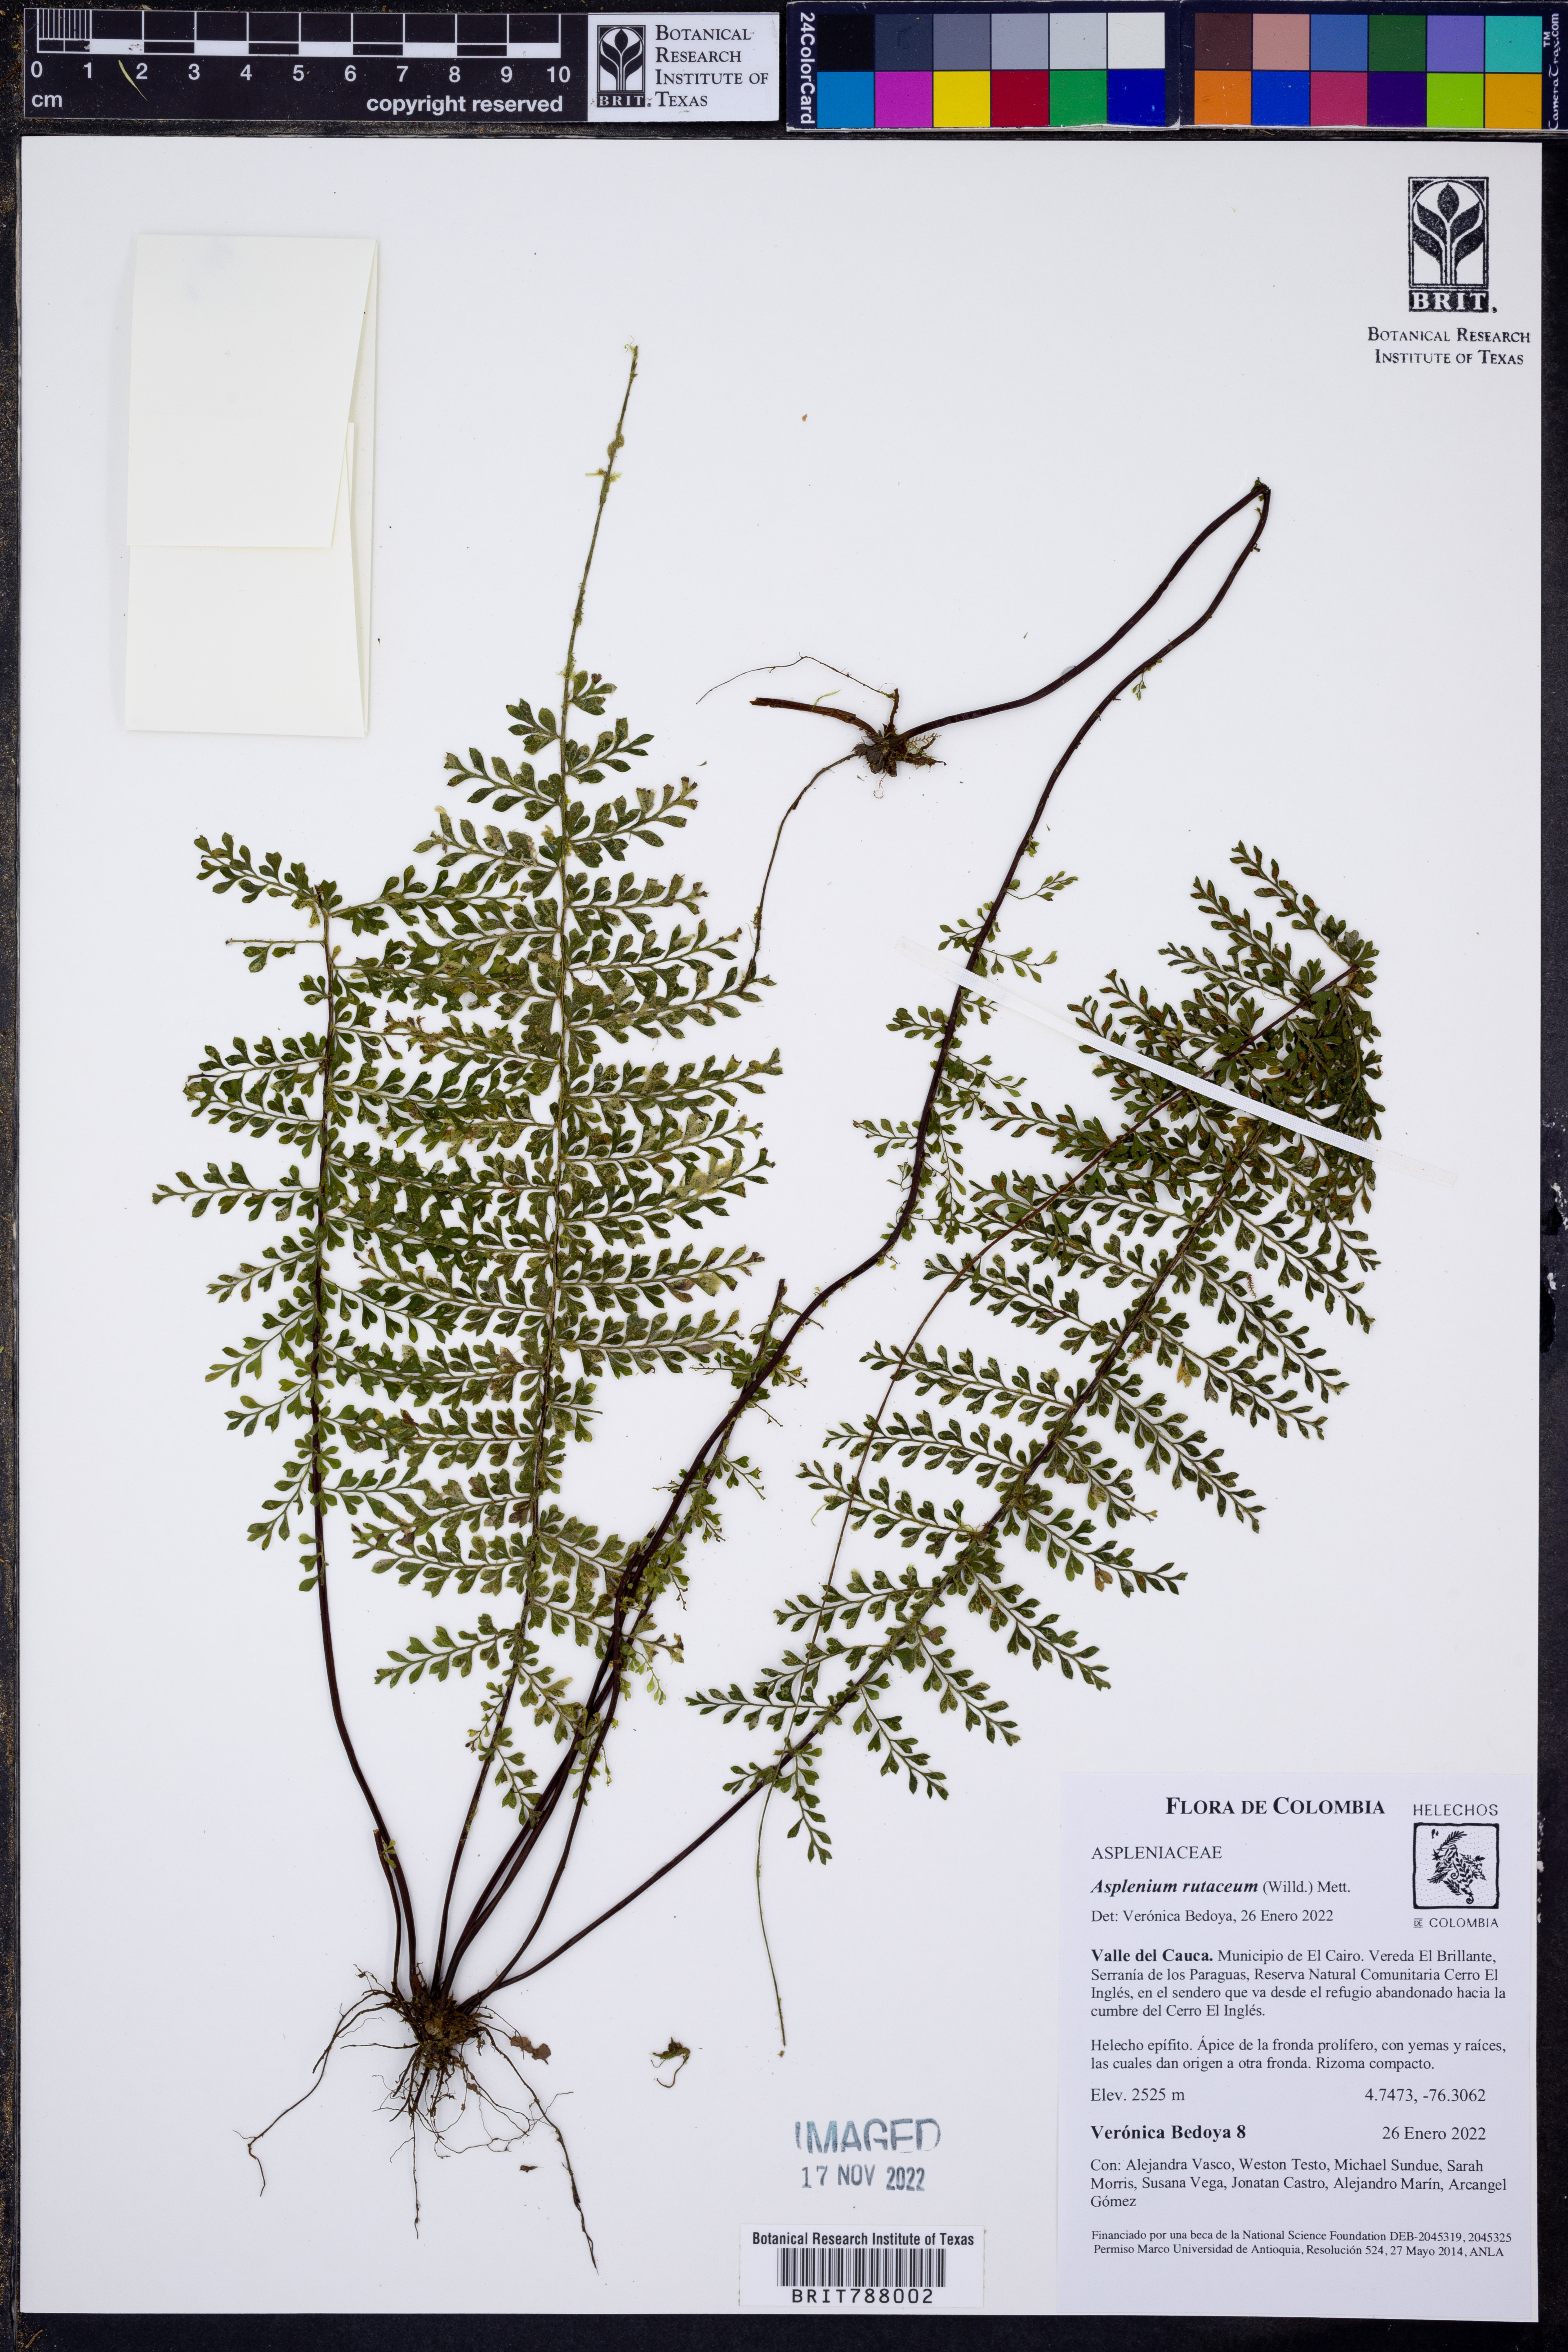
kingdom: Plantae
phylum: Tracheophyta
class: Polypodiopsida
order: Polypodiales
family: Aspleniaceae
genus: Asplenium
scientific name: Asplenium rutaceum
